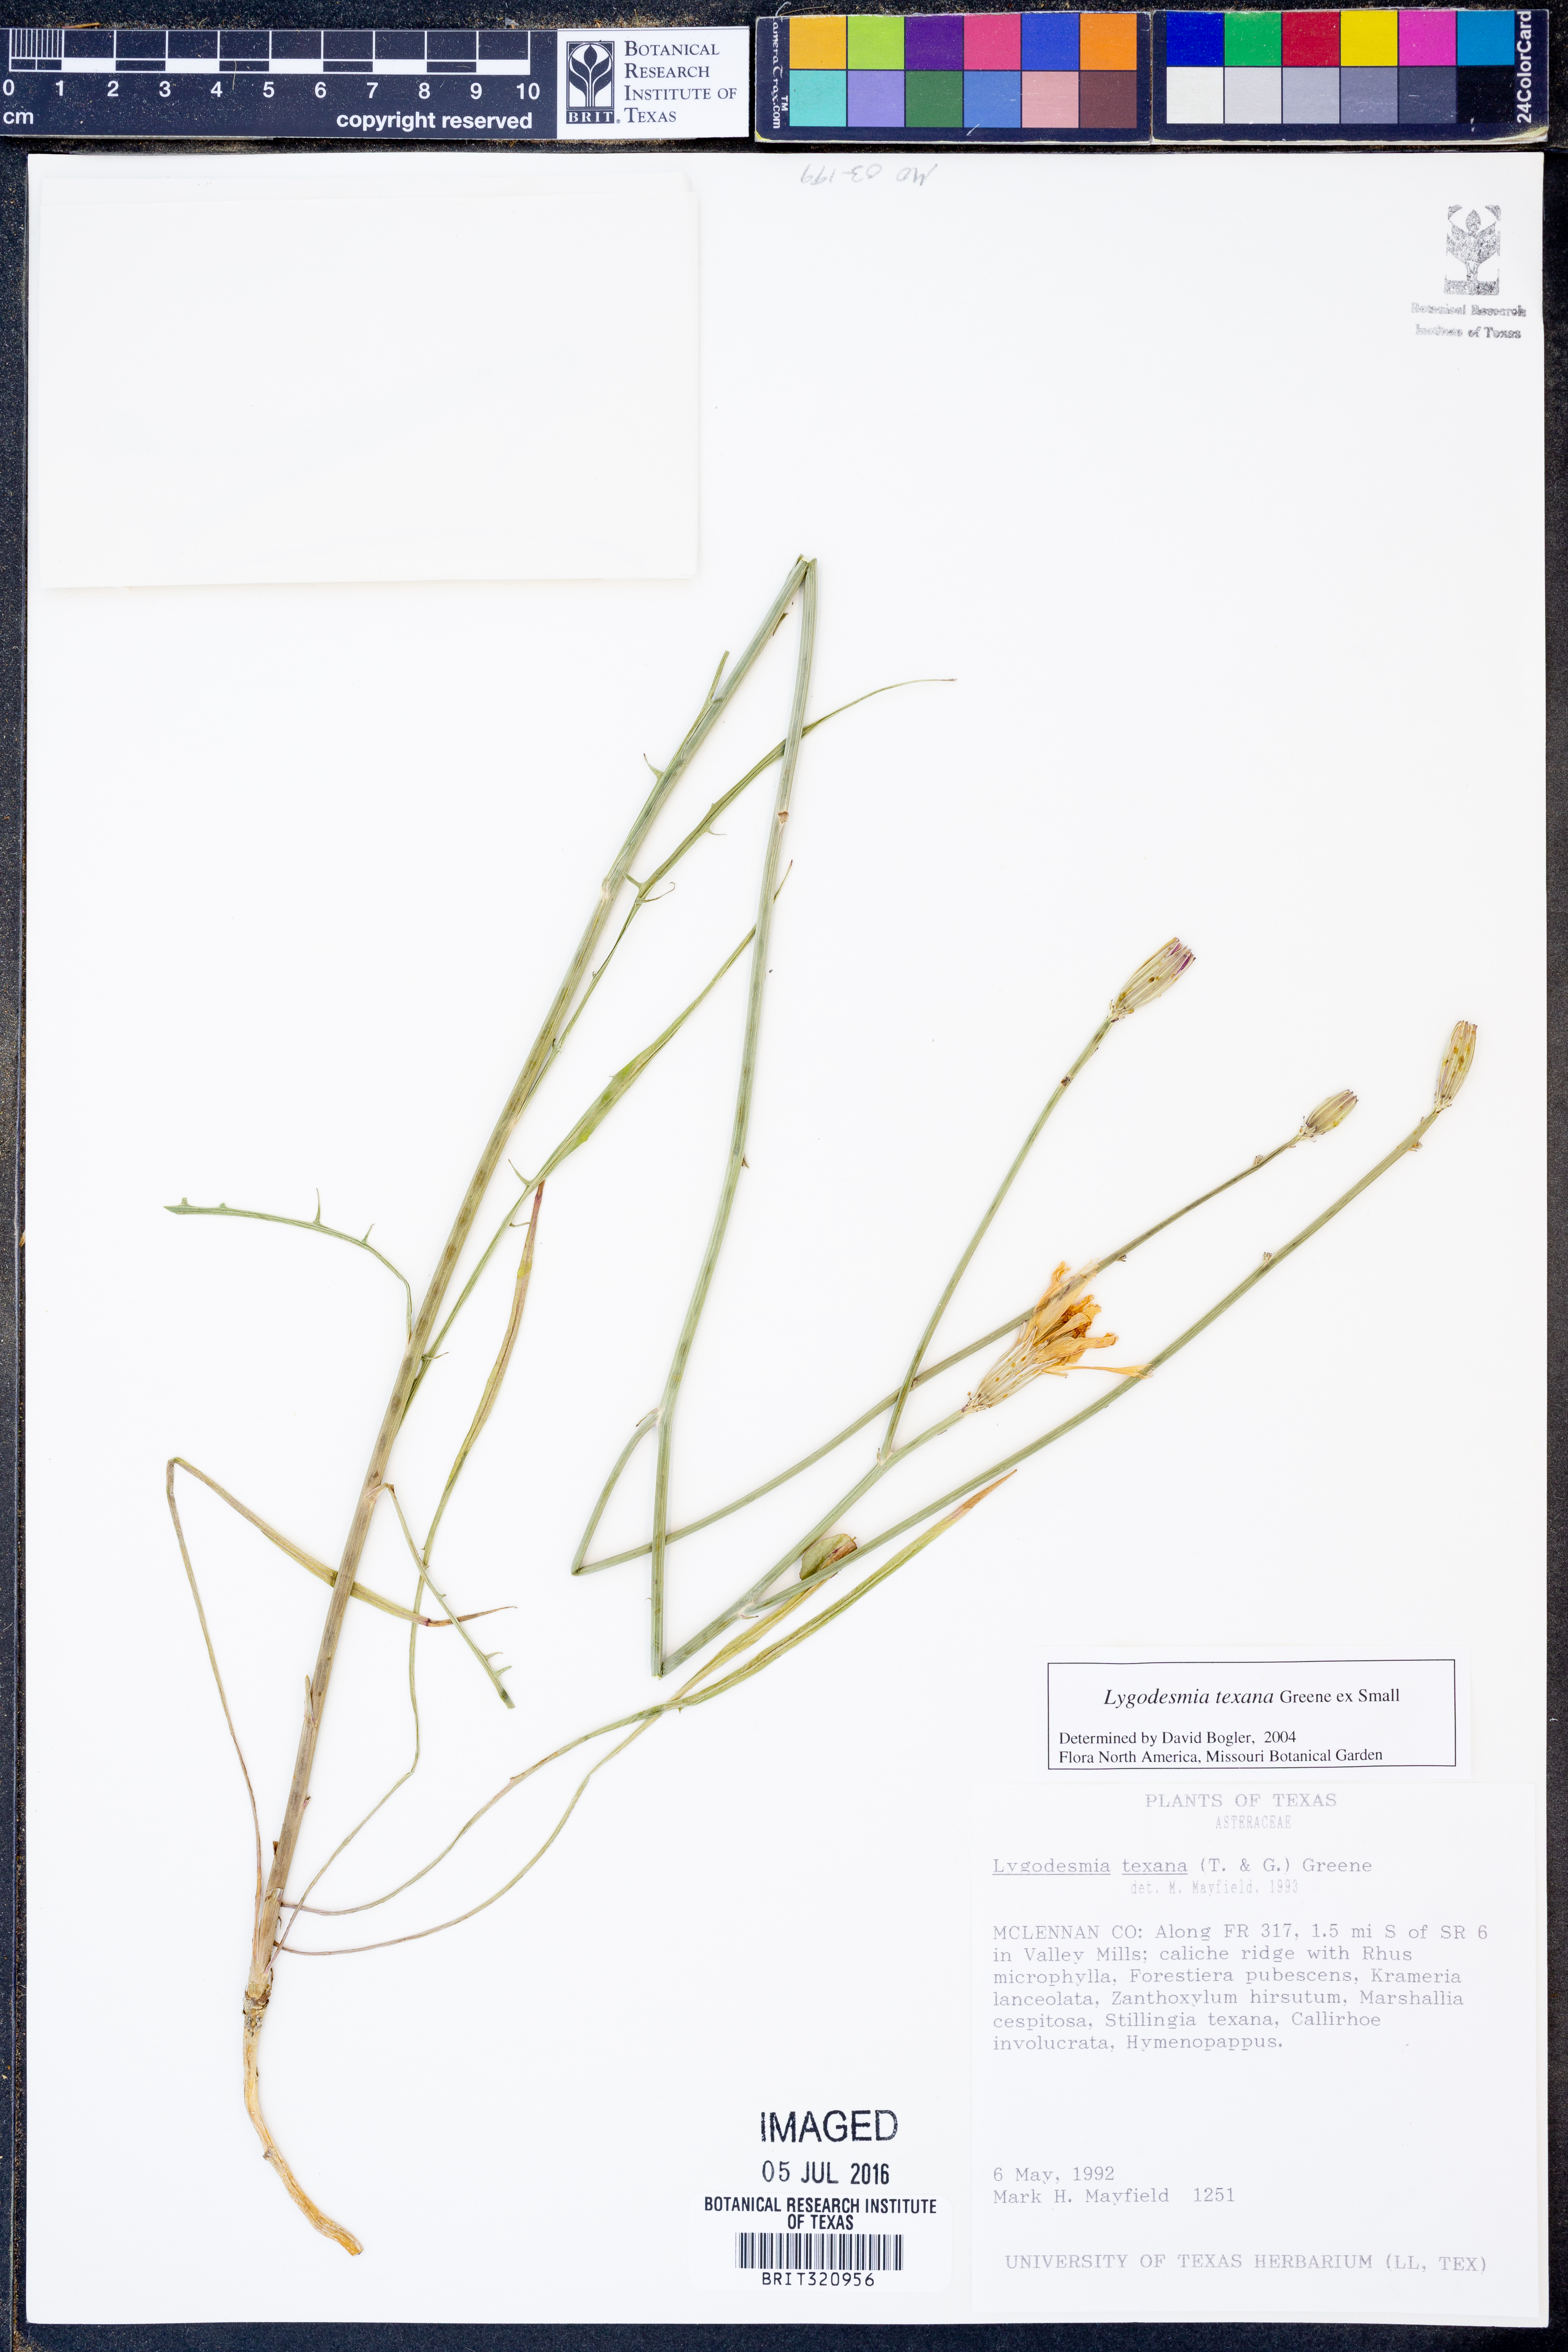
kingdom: Plantae
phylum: Tracheophyta
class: Magnoliopsida
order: Asterales
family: Asteraceae
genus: Lygodesmia
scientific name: Lygodesmia texana
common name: Texas skeleton-plant
